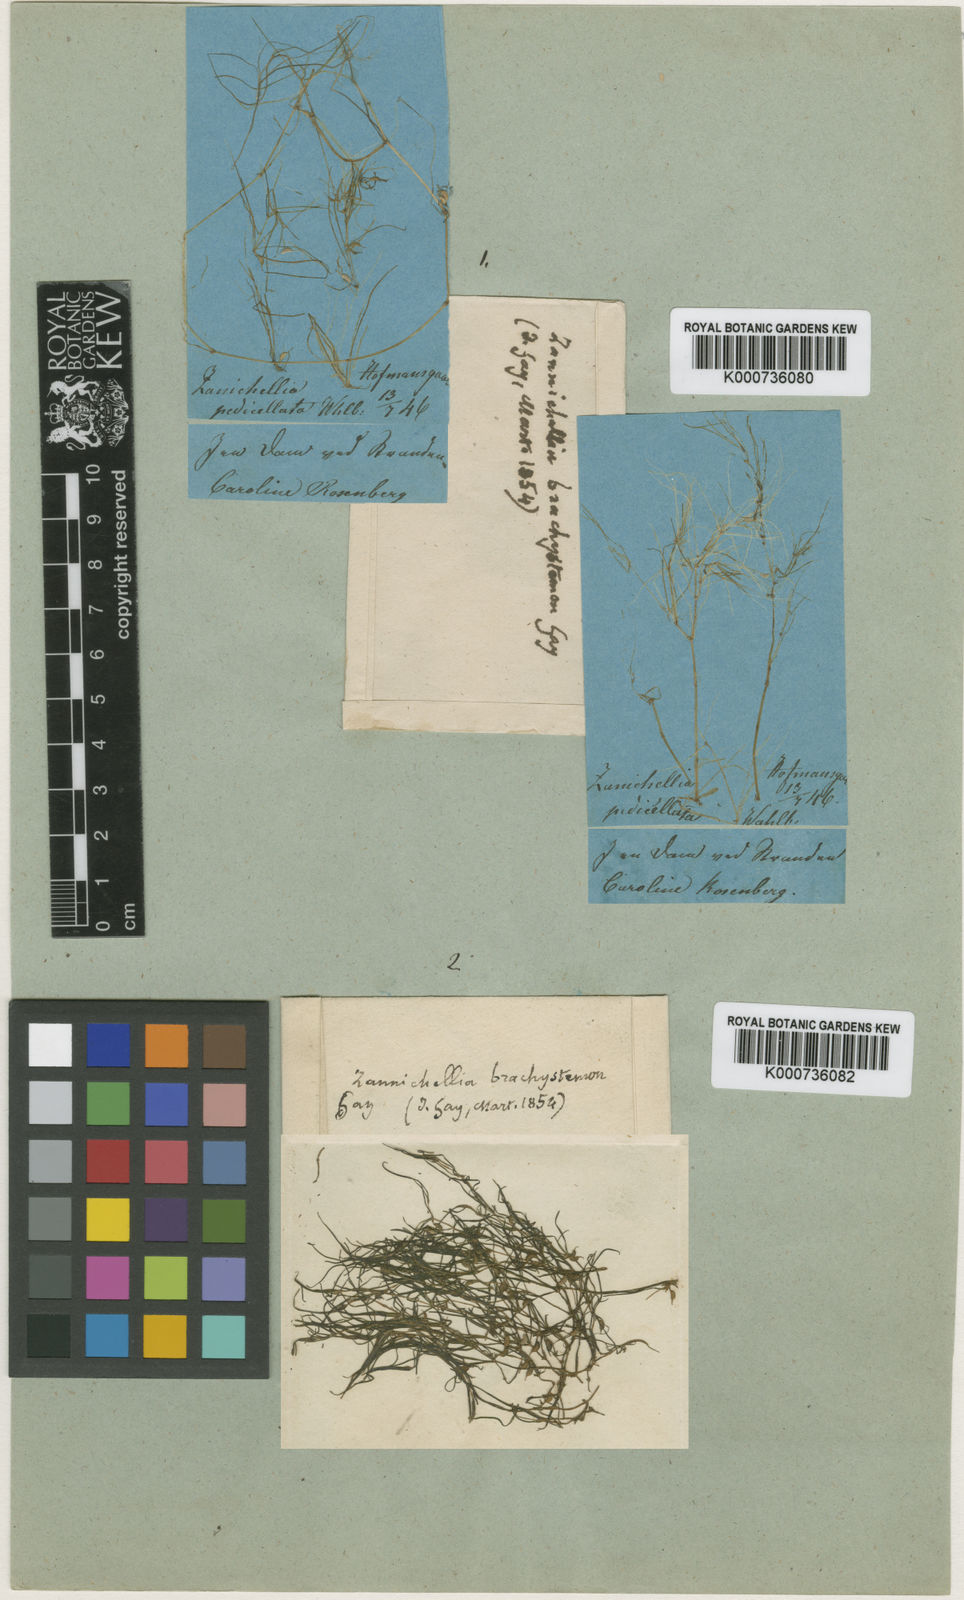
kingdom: Plantae
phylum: Tracheophyta
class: Liliopsida
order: Alismatales
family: Potamogetonaceae
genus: Zannichellia
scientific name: Zannichellia palustris
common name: Horned pondweed
